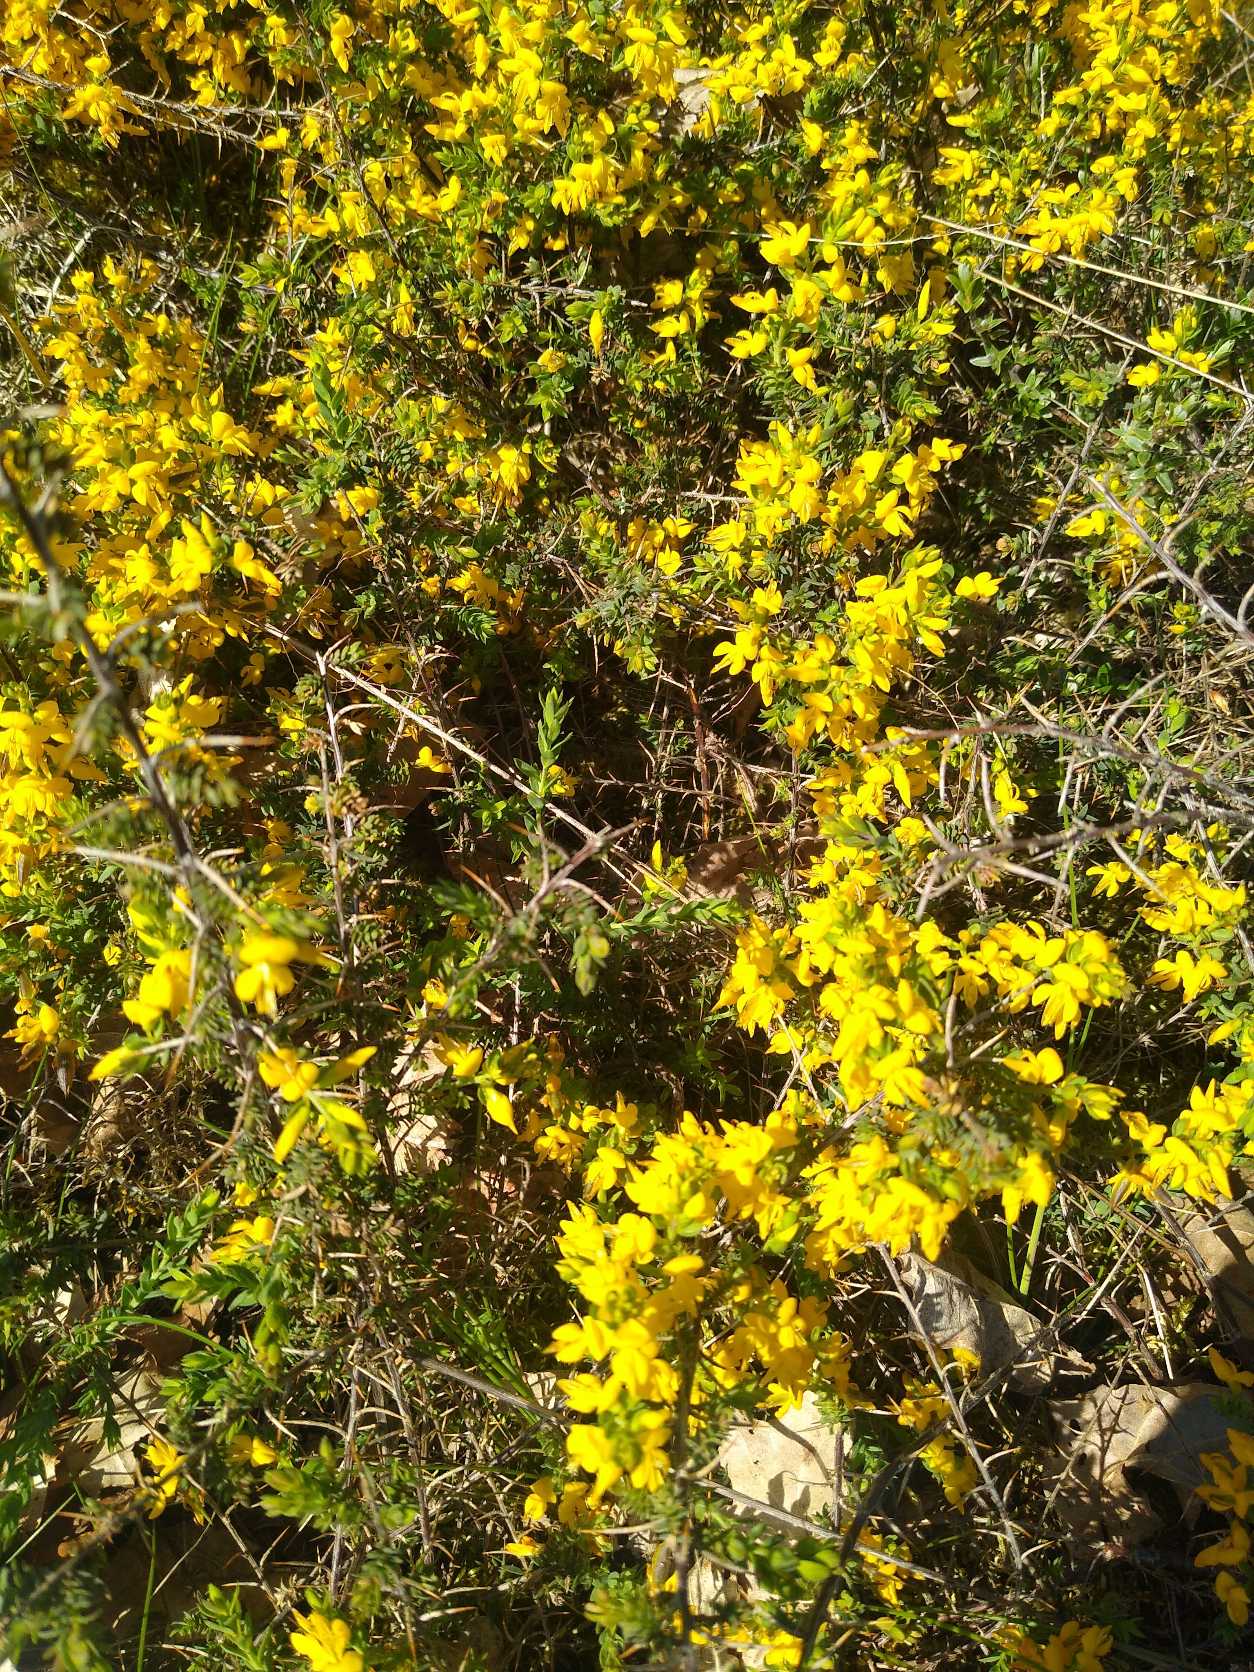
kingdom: Plantae
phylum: Tracheophyta
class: Magnoliopsida
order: Fabales
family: Fabaceae
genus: Genista
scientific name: Genista anglica
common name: Engelsk visse
